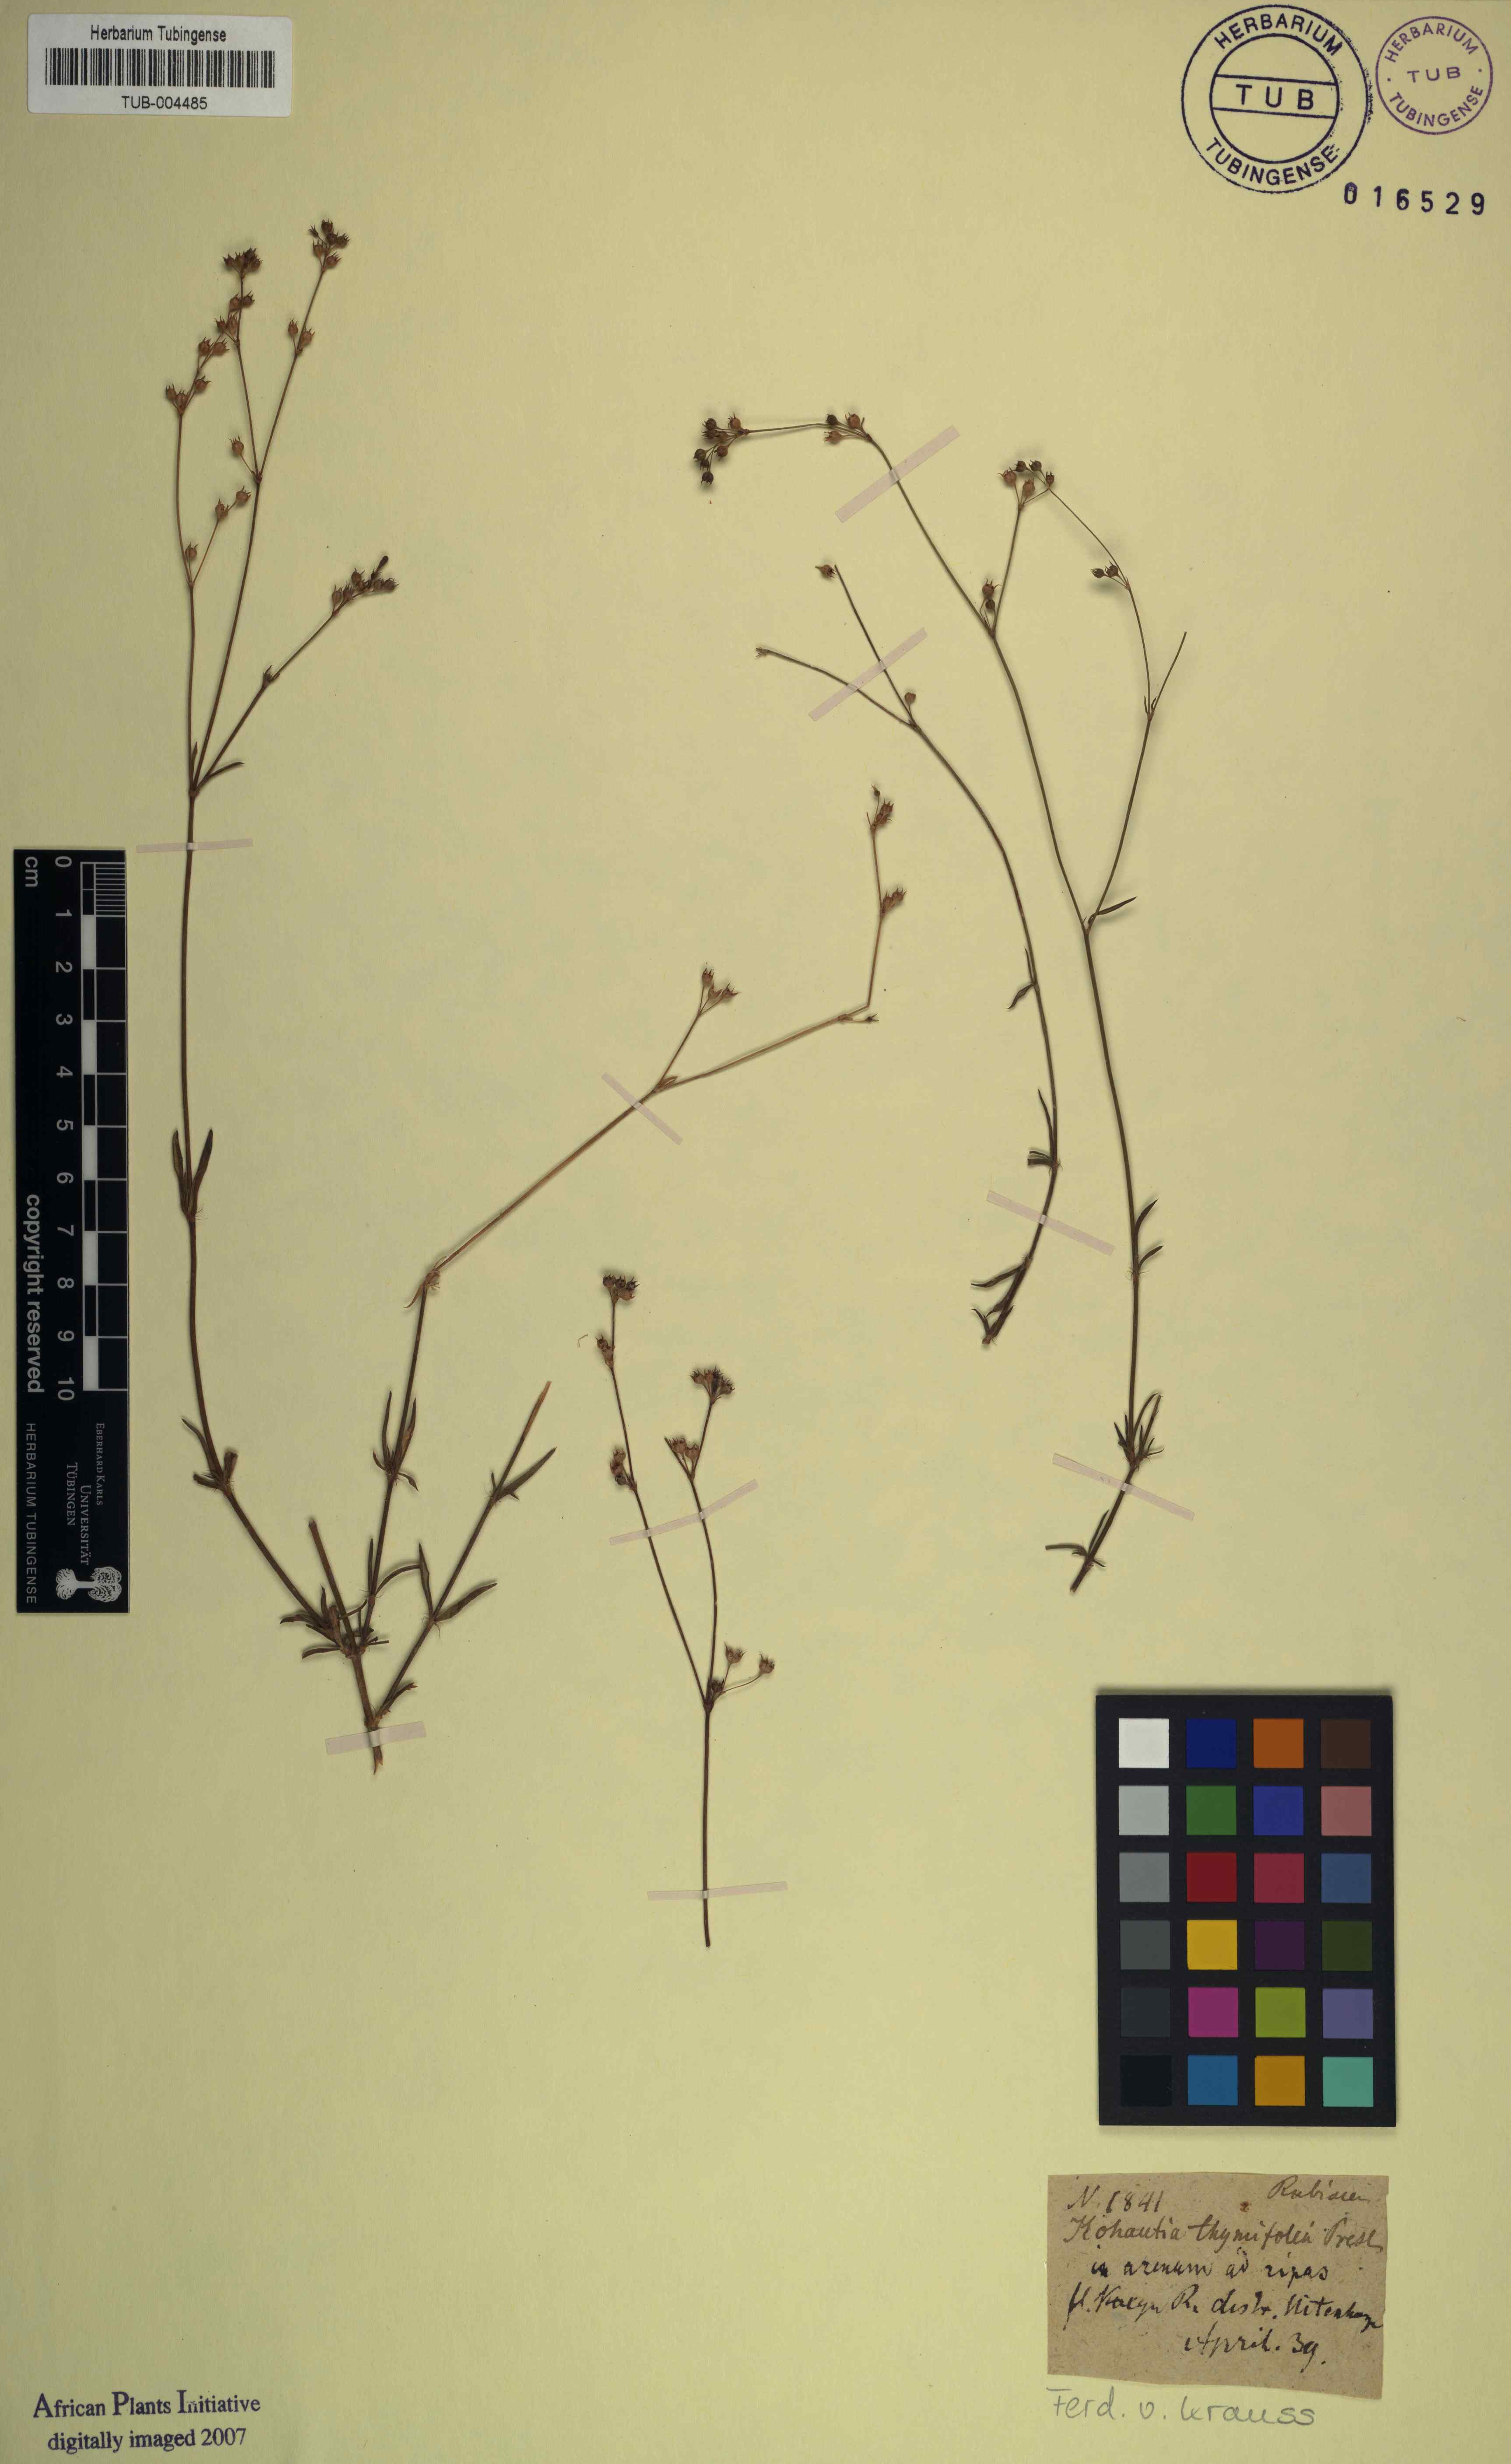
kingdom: Plantae
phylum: Tracheophyta
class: Magnoliopsida
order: Gentianales
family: Rubiaceae
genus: Cordylostigma
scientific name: Cordylostigma virgatum
